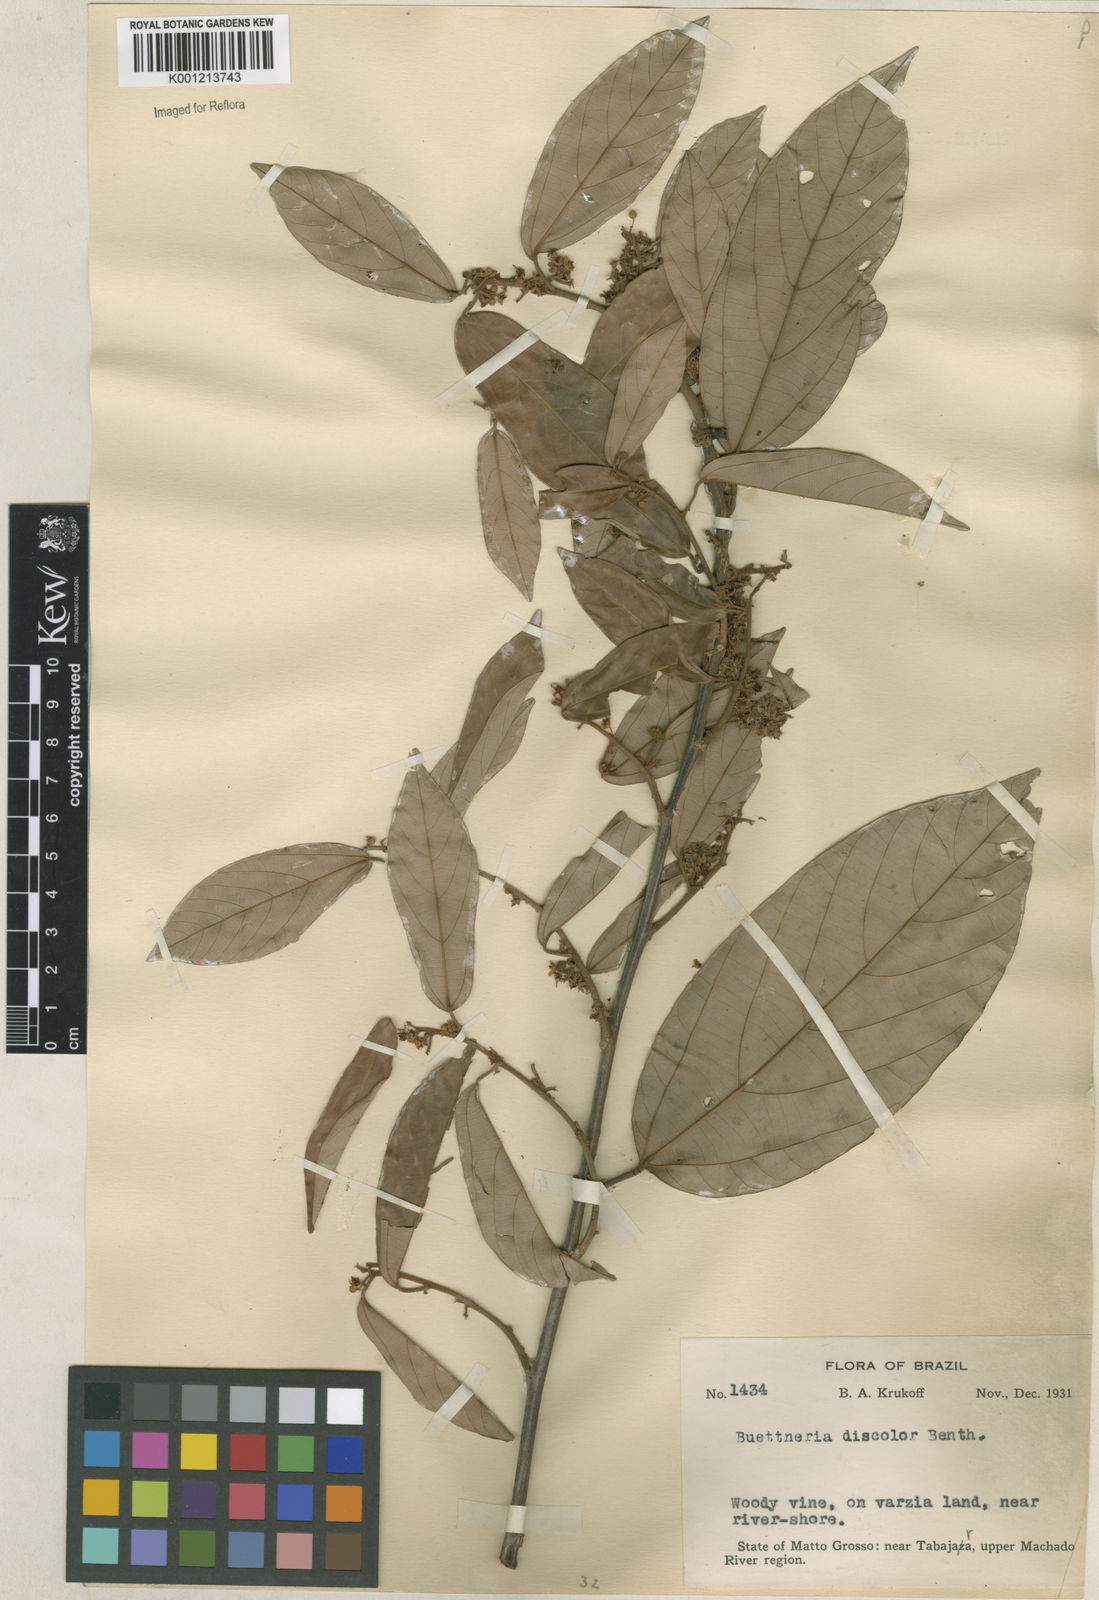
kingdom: Plantae
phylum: Tracheophyta
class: Magnoliopsida
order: Malvales
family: Malvaceae
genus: Byttneria
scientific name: Byttneria fulva
